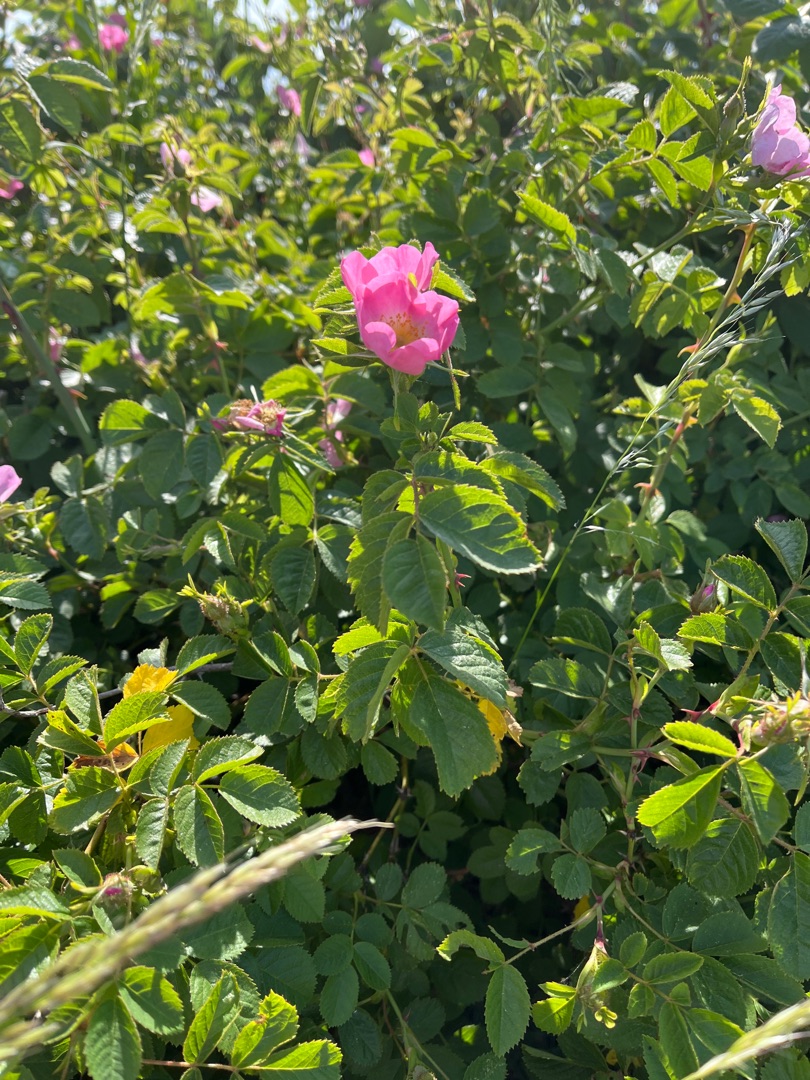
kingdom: Plantae
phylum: Tracheophyta
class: Magnoliopsida
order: Rosales
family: Rosaceae
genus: Rosa
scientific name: Rosa rugosa
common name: Rynket rose
